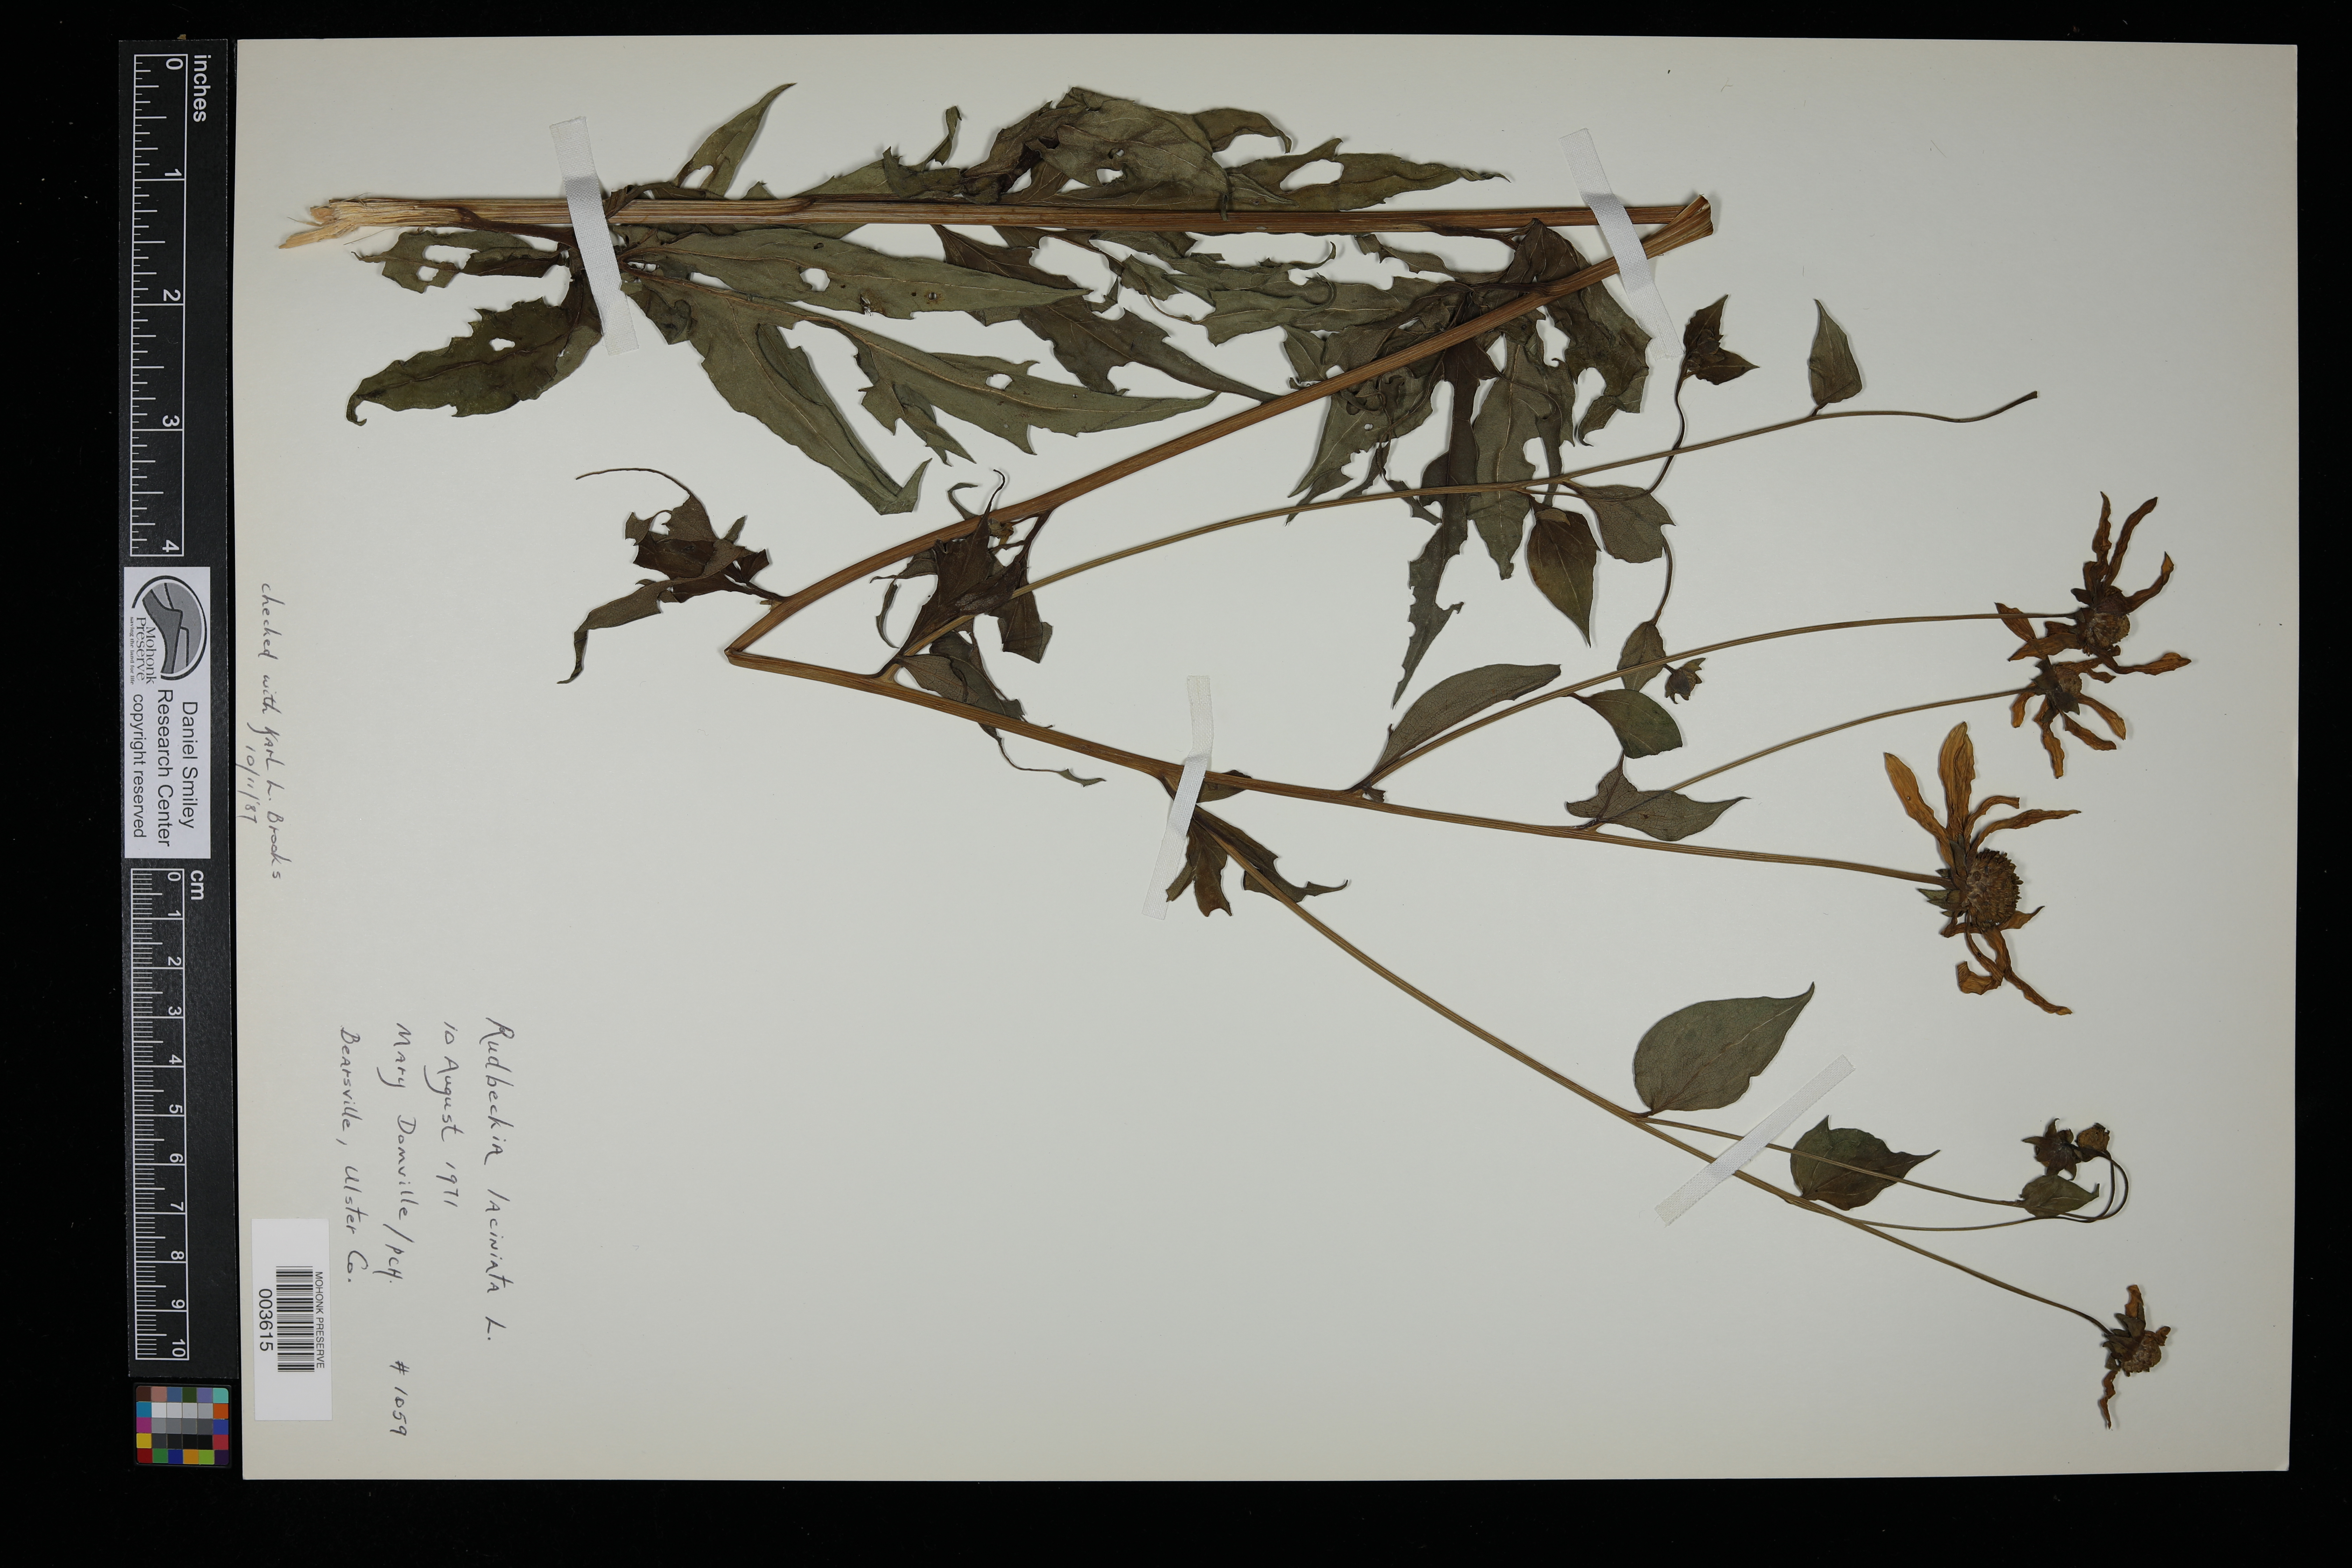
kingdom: Plantae
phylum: Tracheophyta
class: Magnoliopsida
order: Asterales
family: Asteraceae
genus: Rudbeckia
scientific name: Rudbeckia
